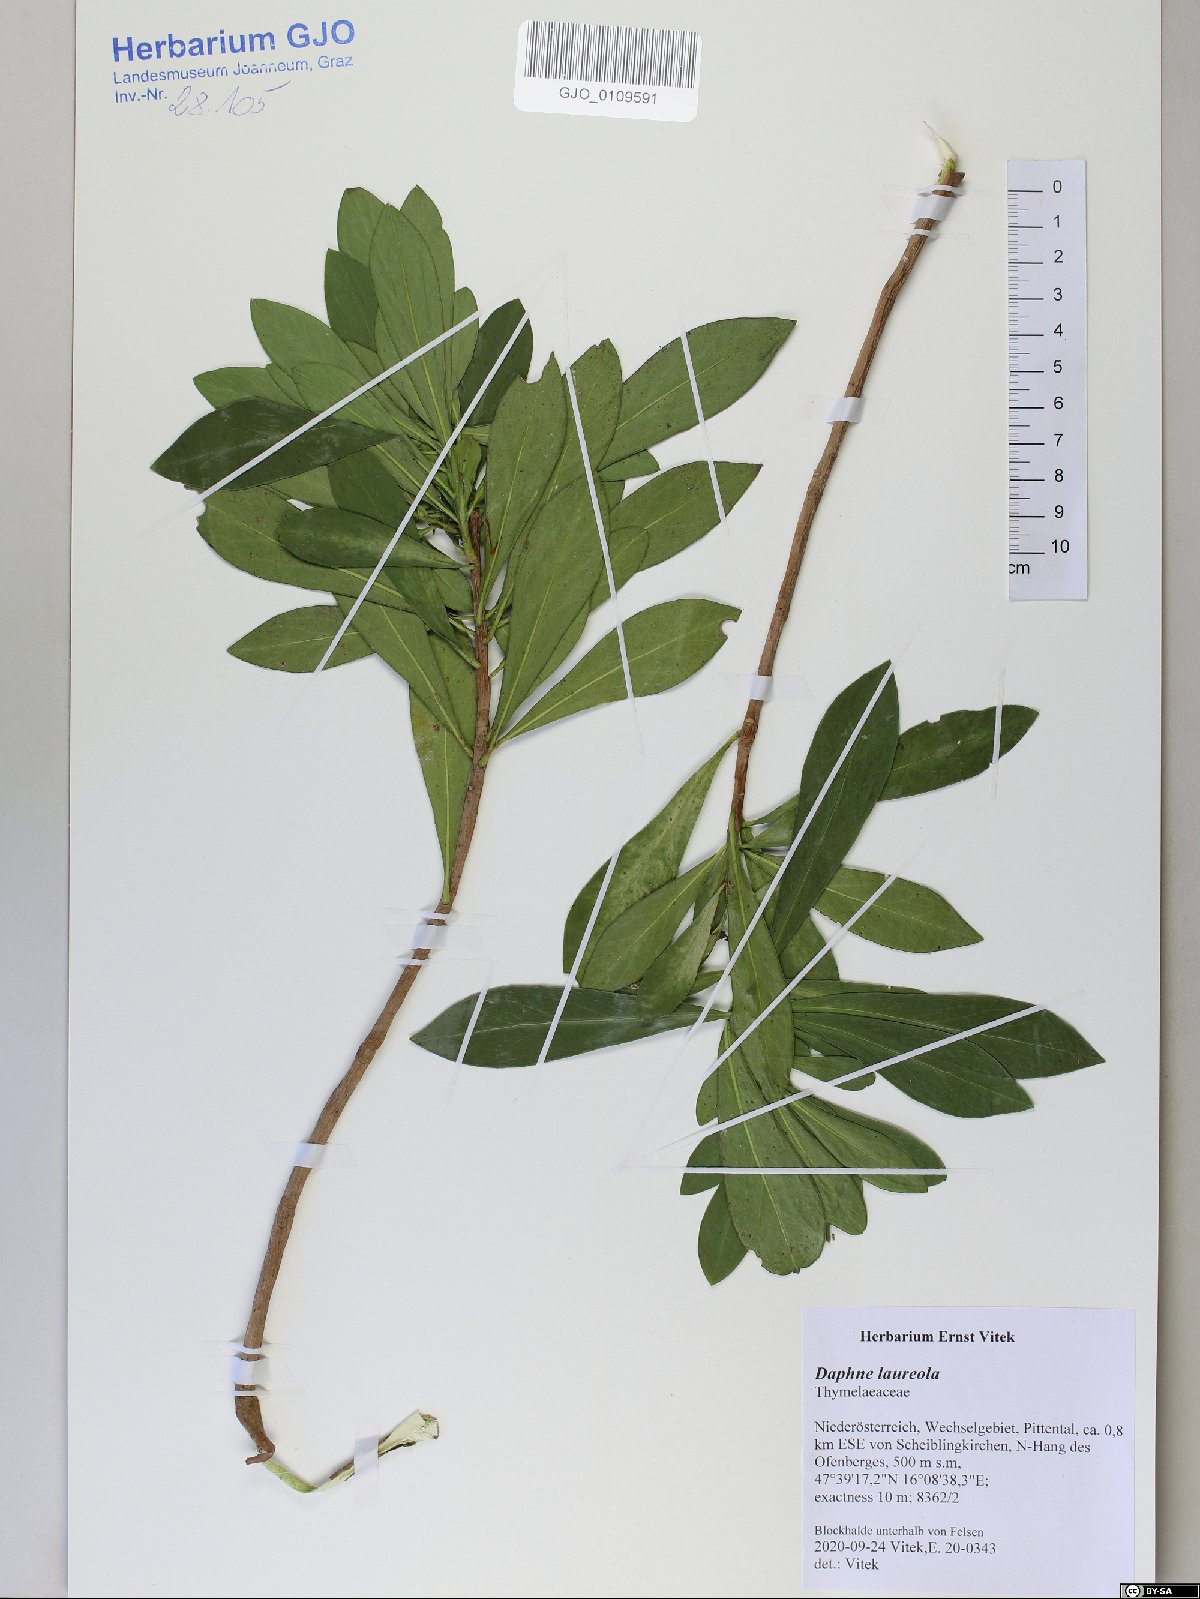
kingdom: Plantae
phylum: Tracheophyta
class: Magnoliopsida
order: Malvales
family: Thymelaeaceae
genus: Daphne
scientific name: Daphne laureola
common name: Spurge-laurel
